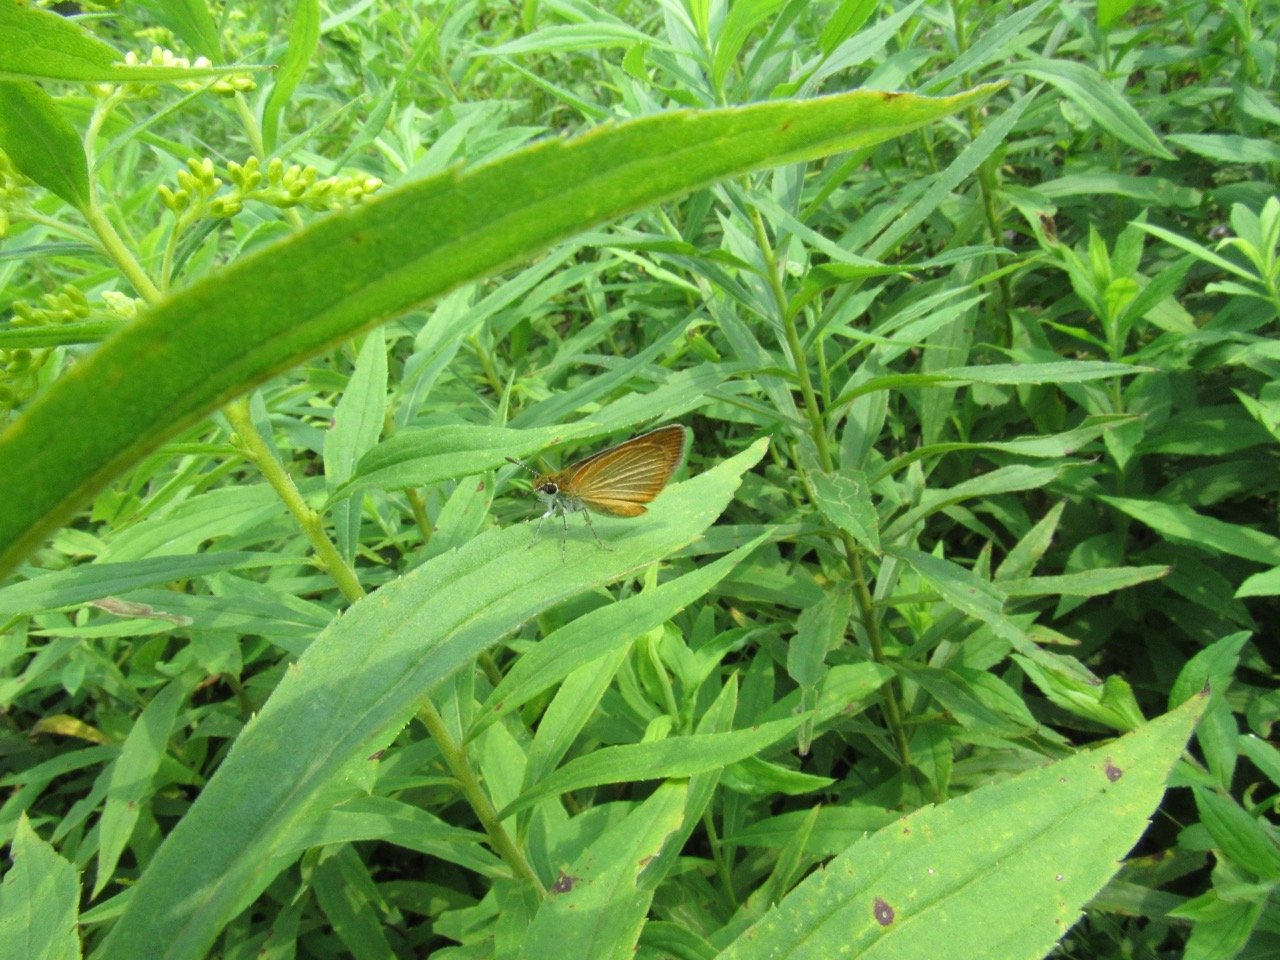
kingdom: Animalia
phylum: Arthropoda
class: Insecta
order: Lepidoptera
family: Hesperiidae
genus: Ancyloxypha
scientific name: Ancyloxypha numitor
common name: Least Skipper
